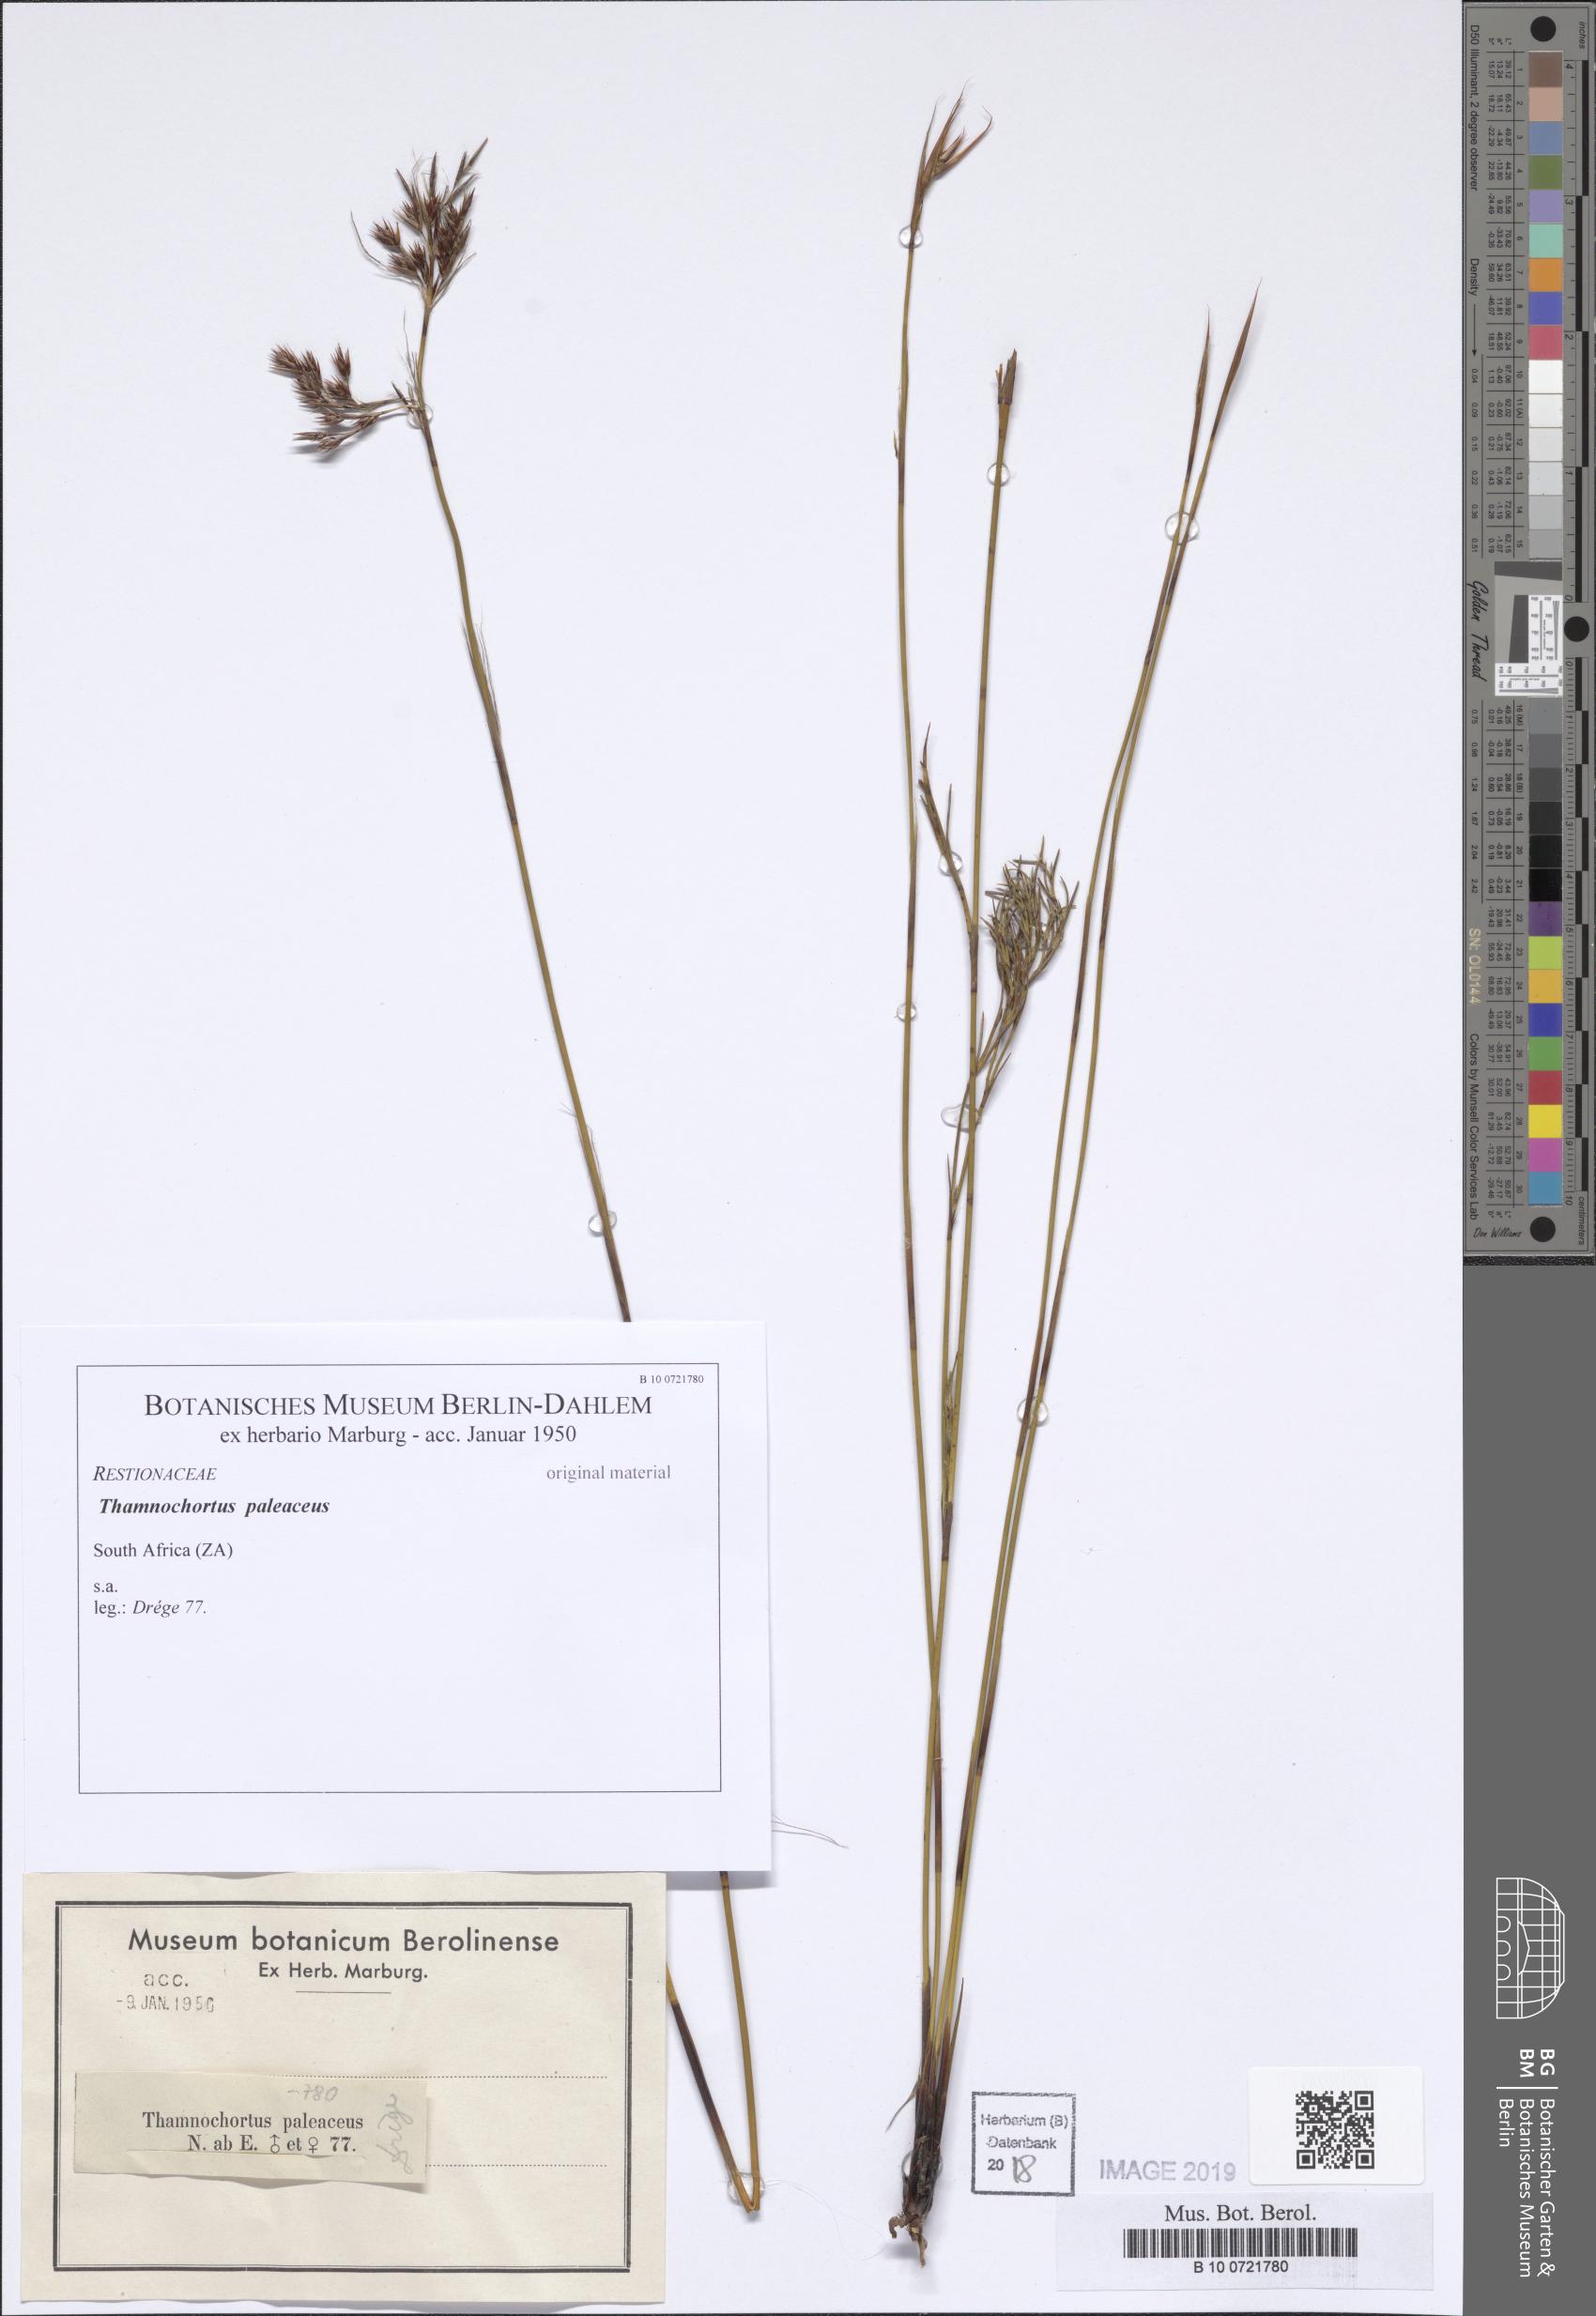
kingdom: Plantae
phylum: Tracheophyta
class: Liliopsida
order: Poales
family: Restionaceae
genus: Rhodocoma
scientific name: Rhodocoma fruticosa
